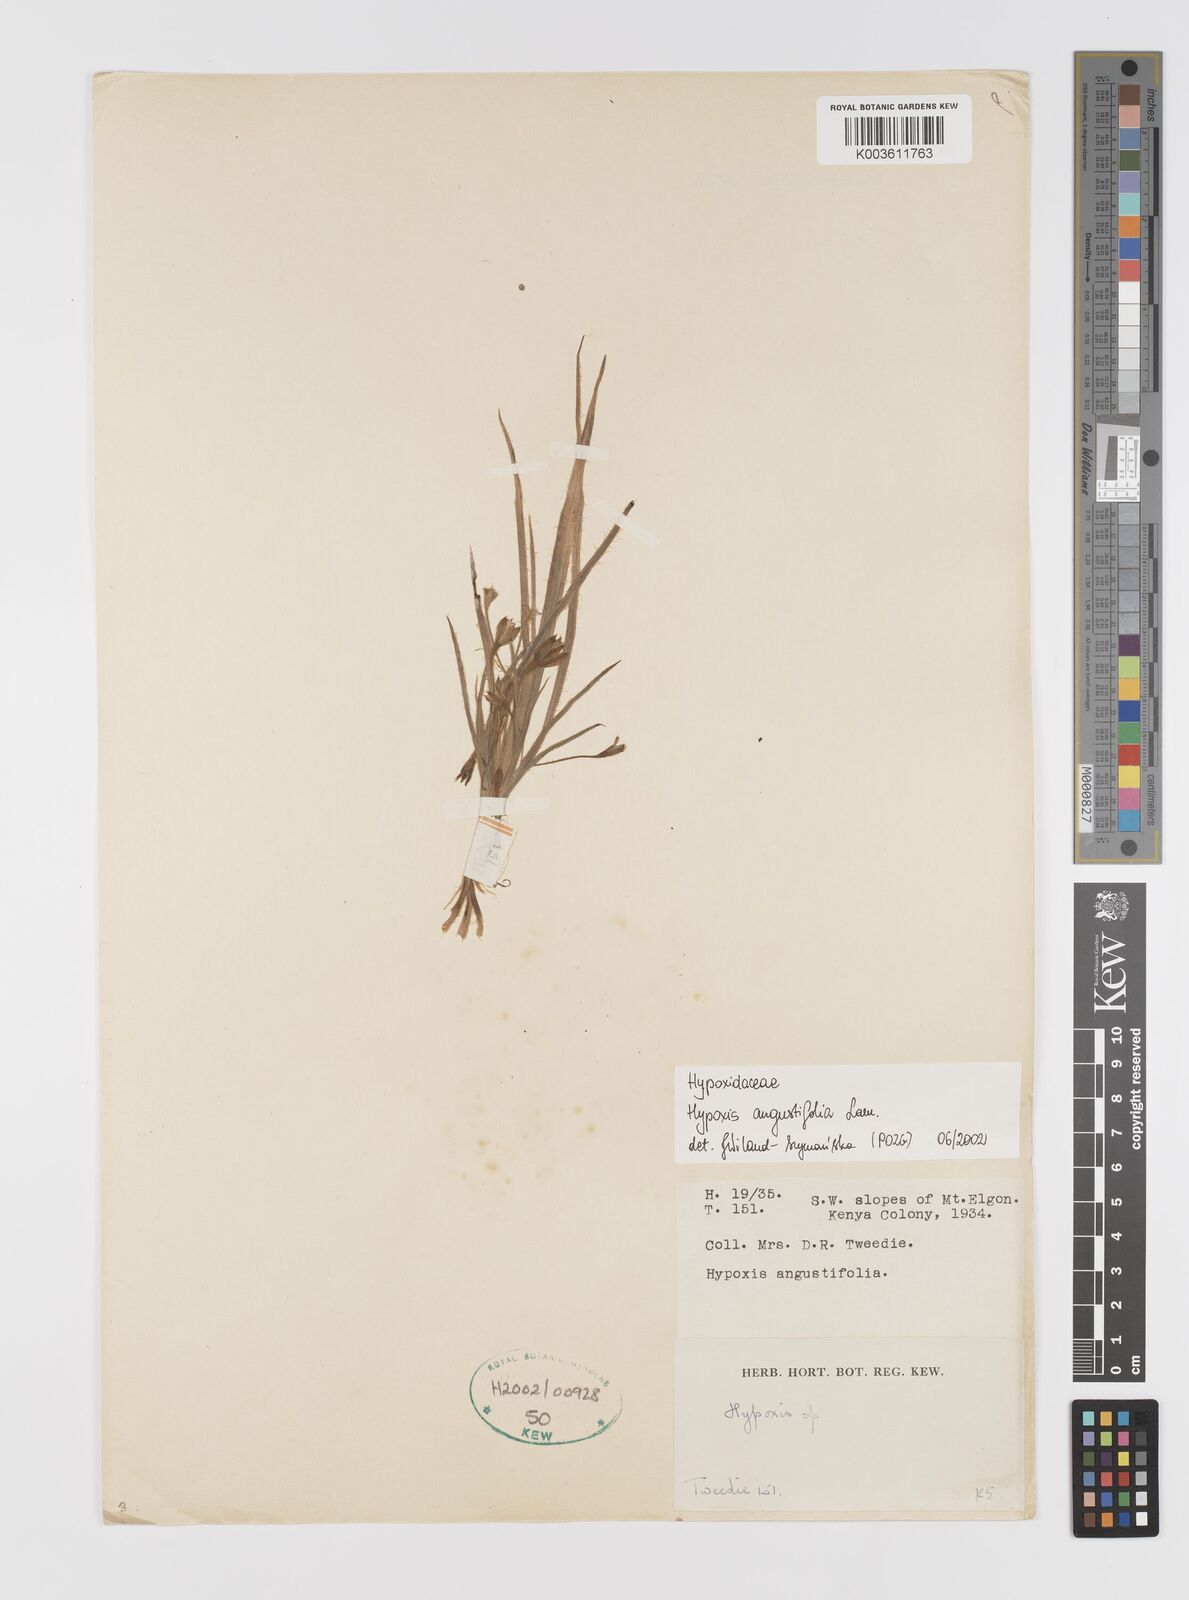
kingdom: Plantae
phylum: Tracheophyta
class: Liliopsida
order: Asparagales
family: Hypoxidaceae
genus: Hypoxis
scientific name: Hypoxis angustifolia
